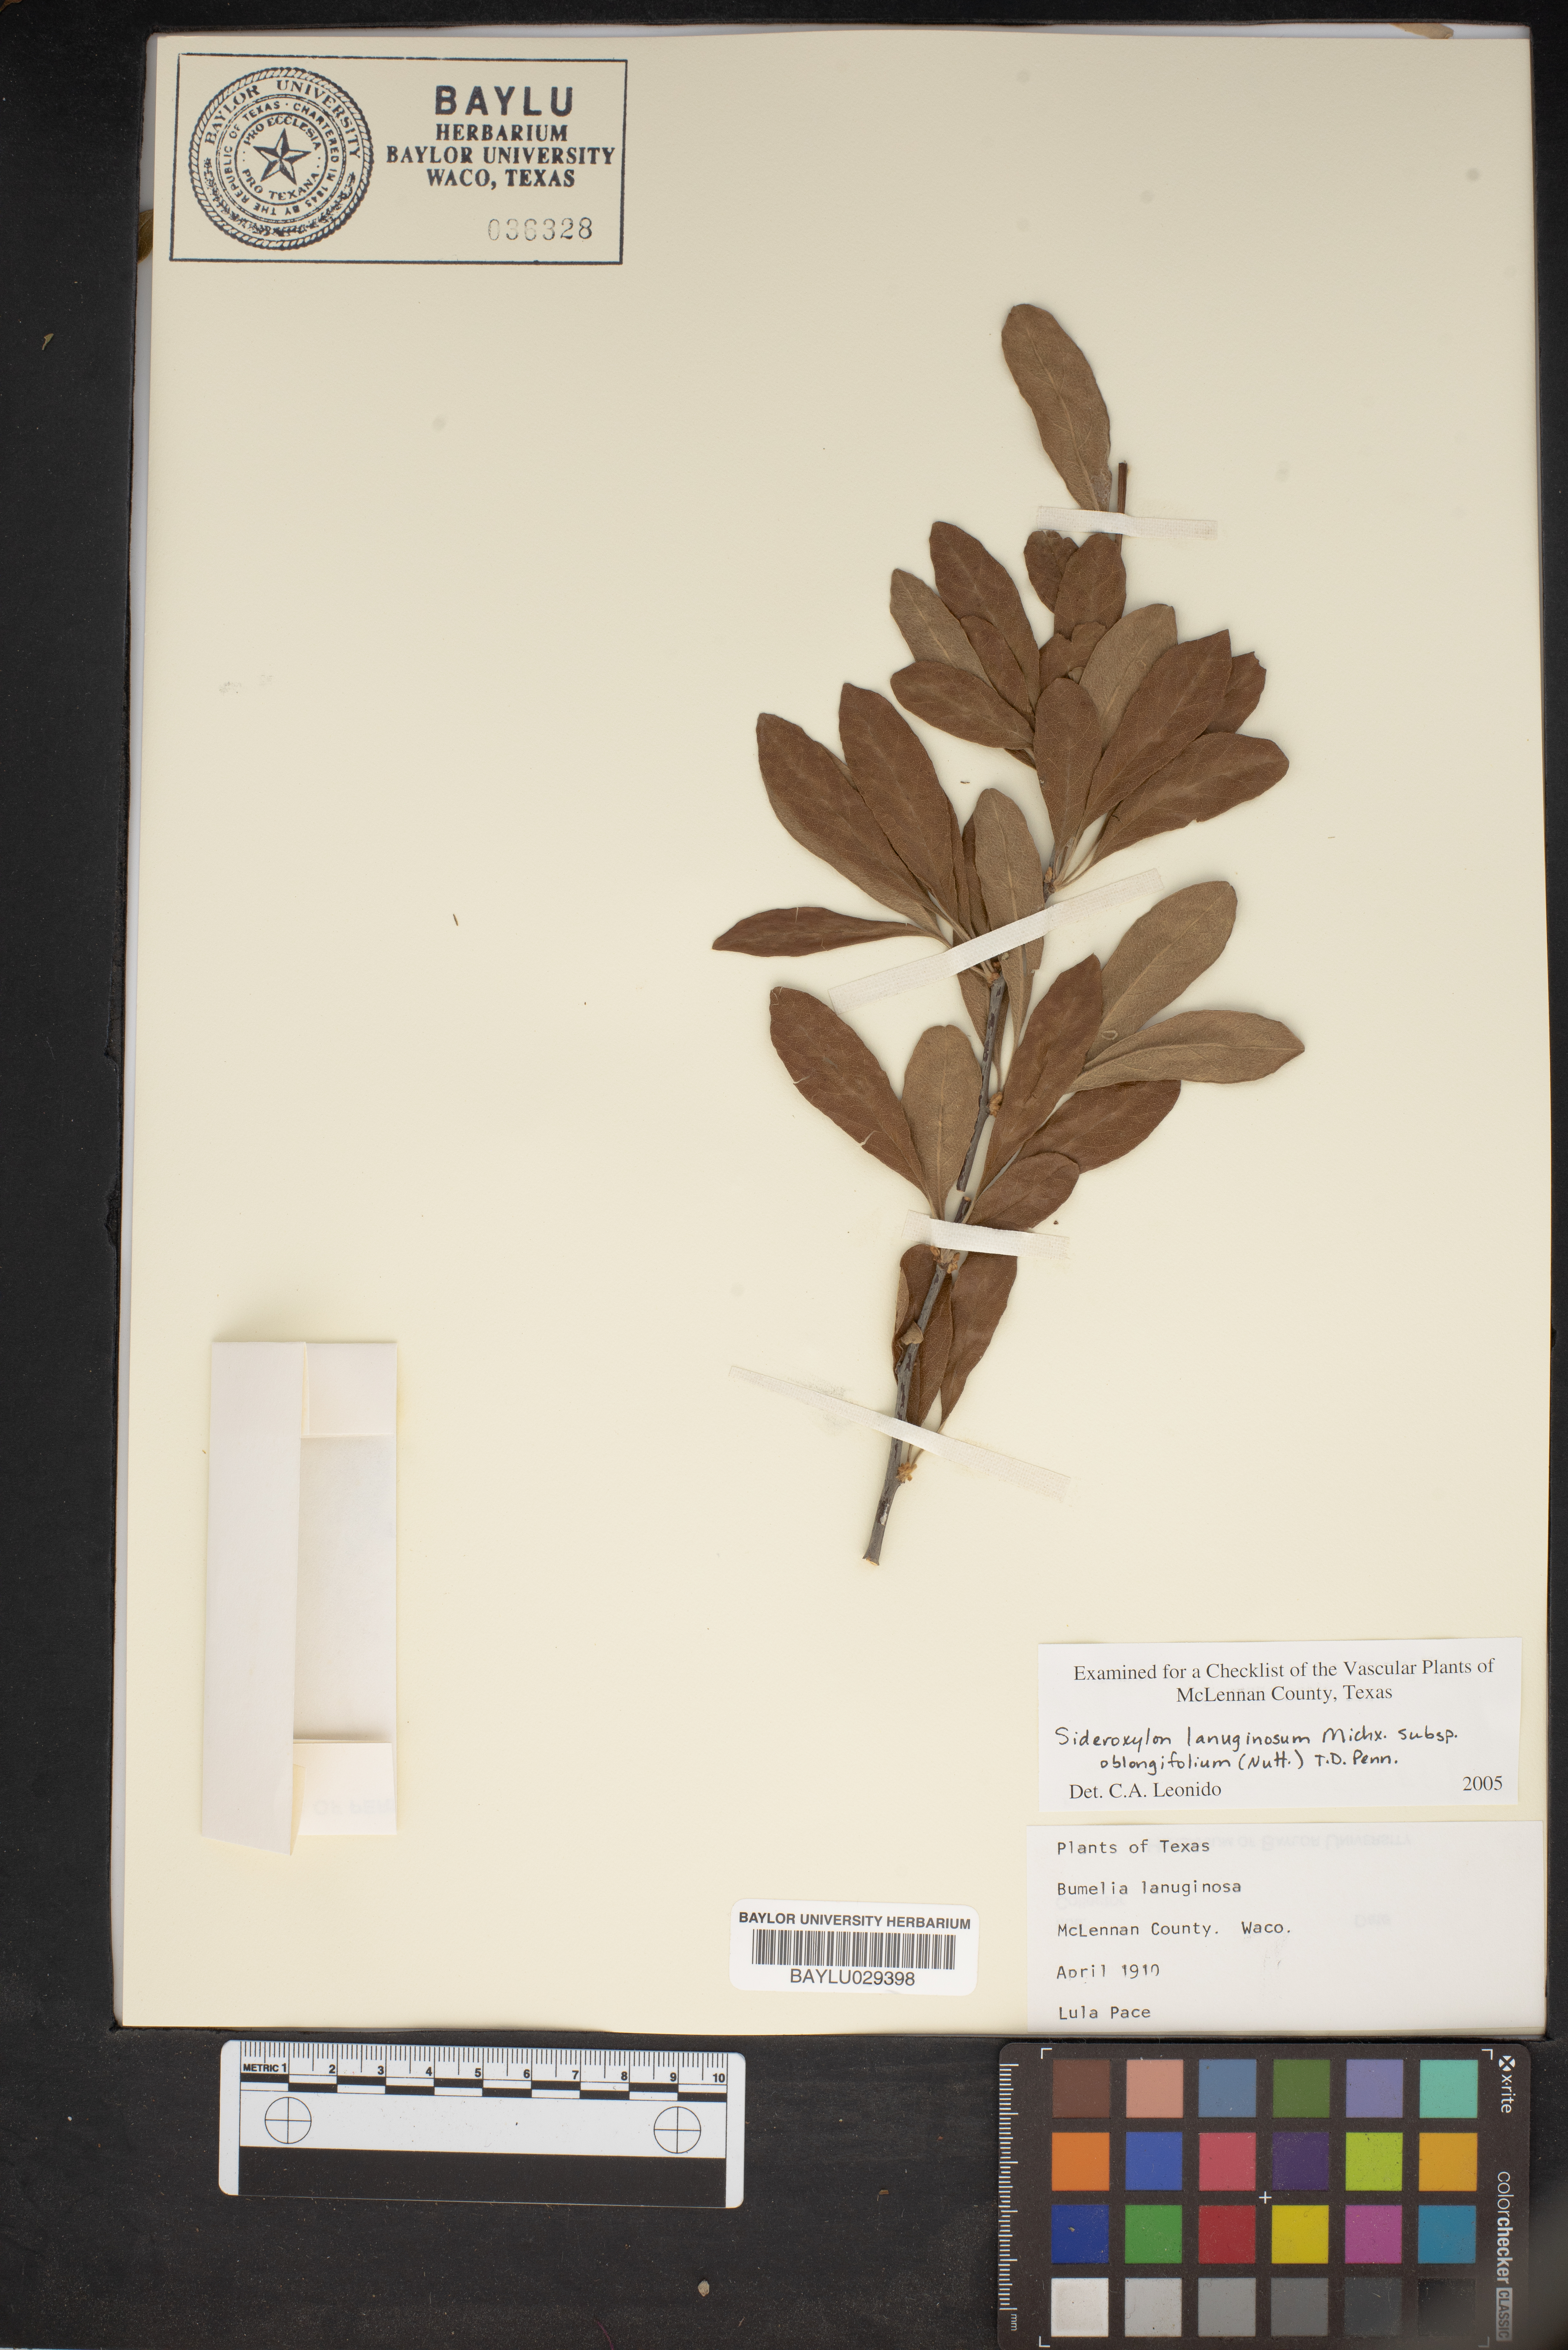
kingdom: Plantae
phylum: Tracheophyta
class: Magnoliopsida
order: Ericales
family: Sapotaceae
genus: Sideroxylon
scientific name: Sideroxylon lanuginosum
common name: Chittamwood
